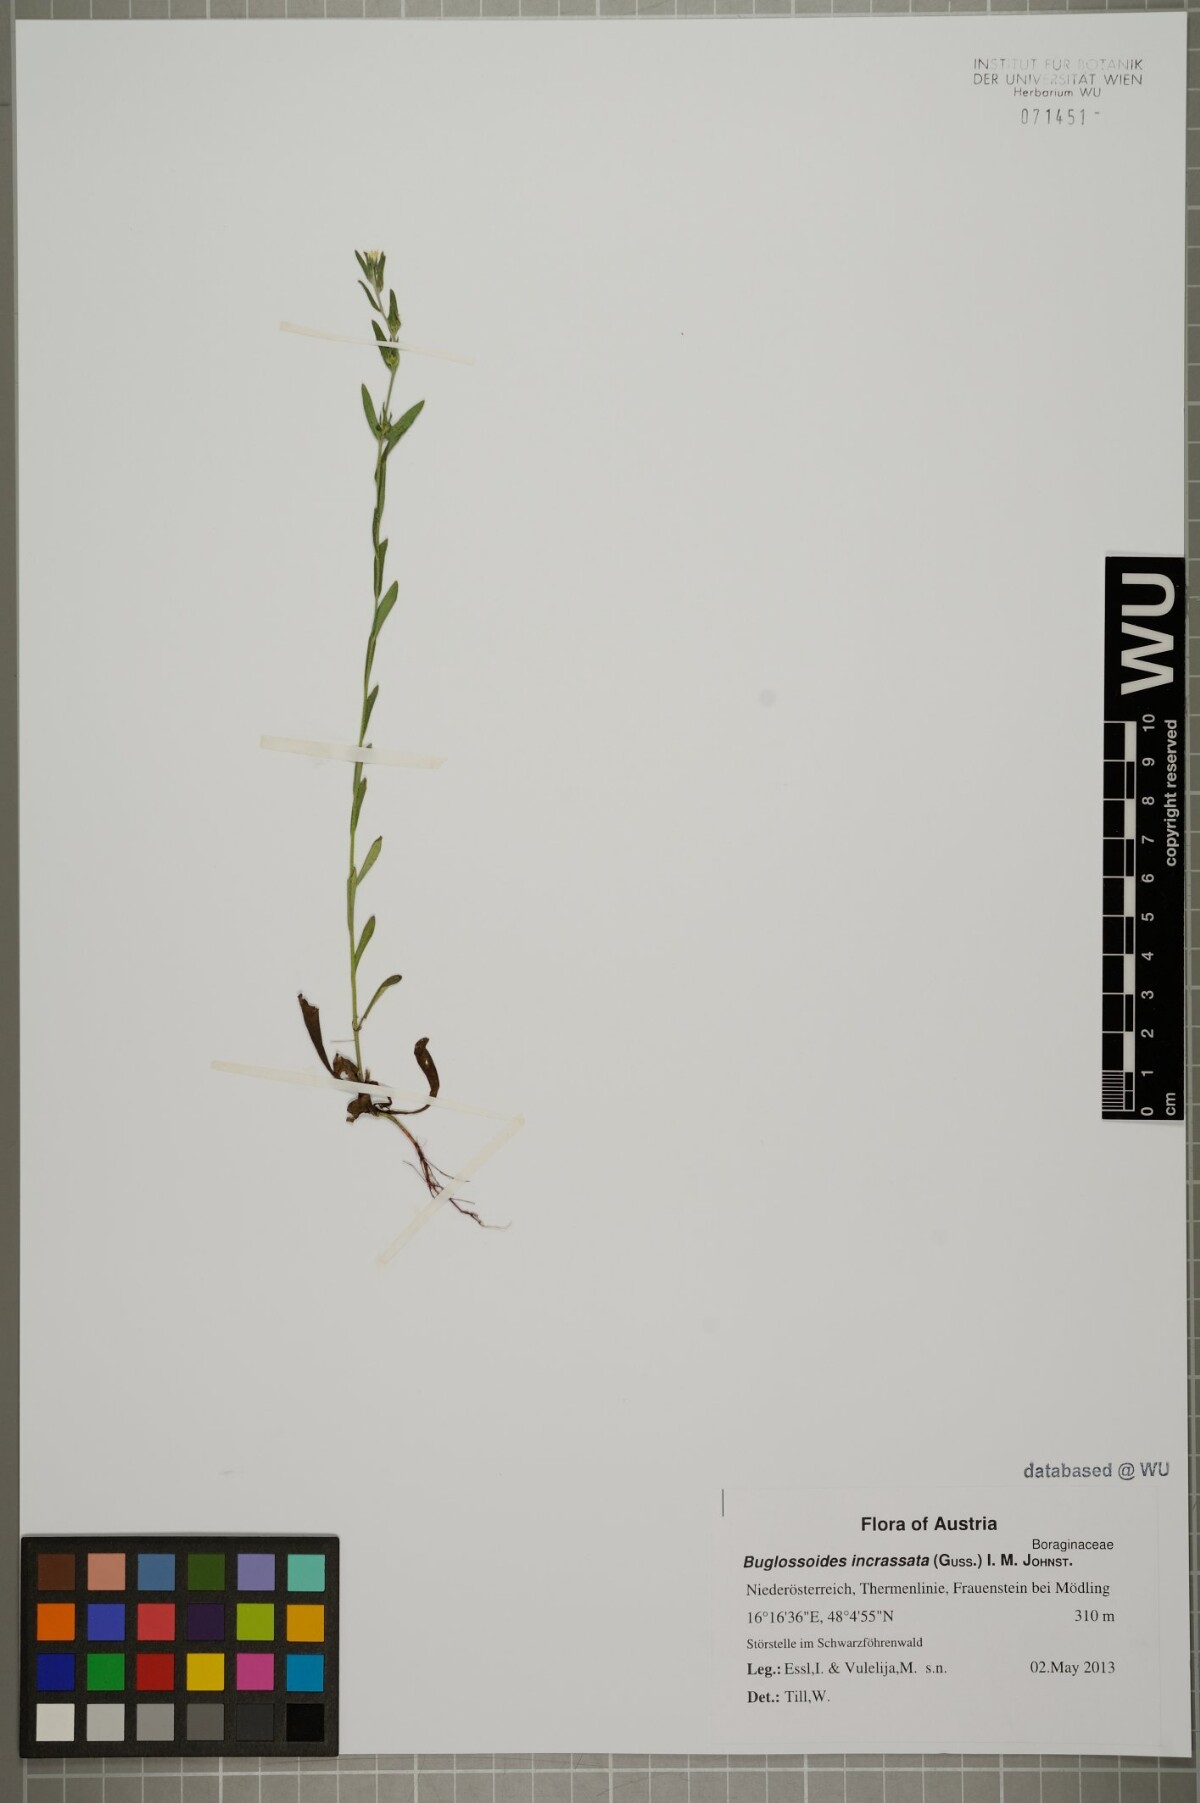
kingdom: Plantae
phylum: Tracheophyta
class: Magnoliopsida
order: Boraginales
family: Boraginaceae
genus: Buglossoides
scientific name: Buglossoides incrassata
